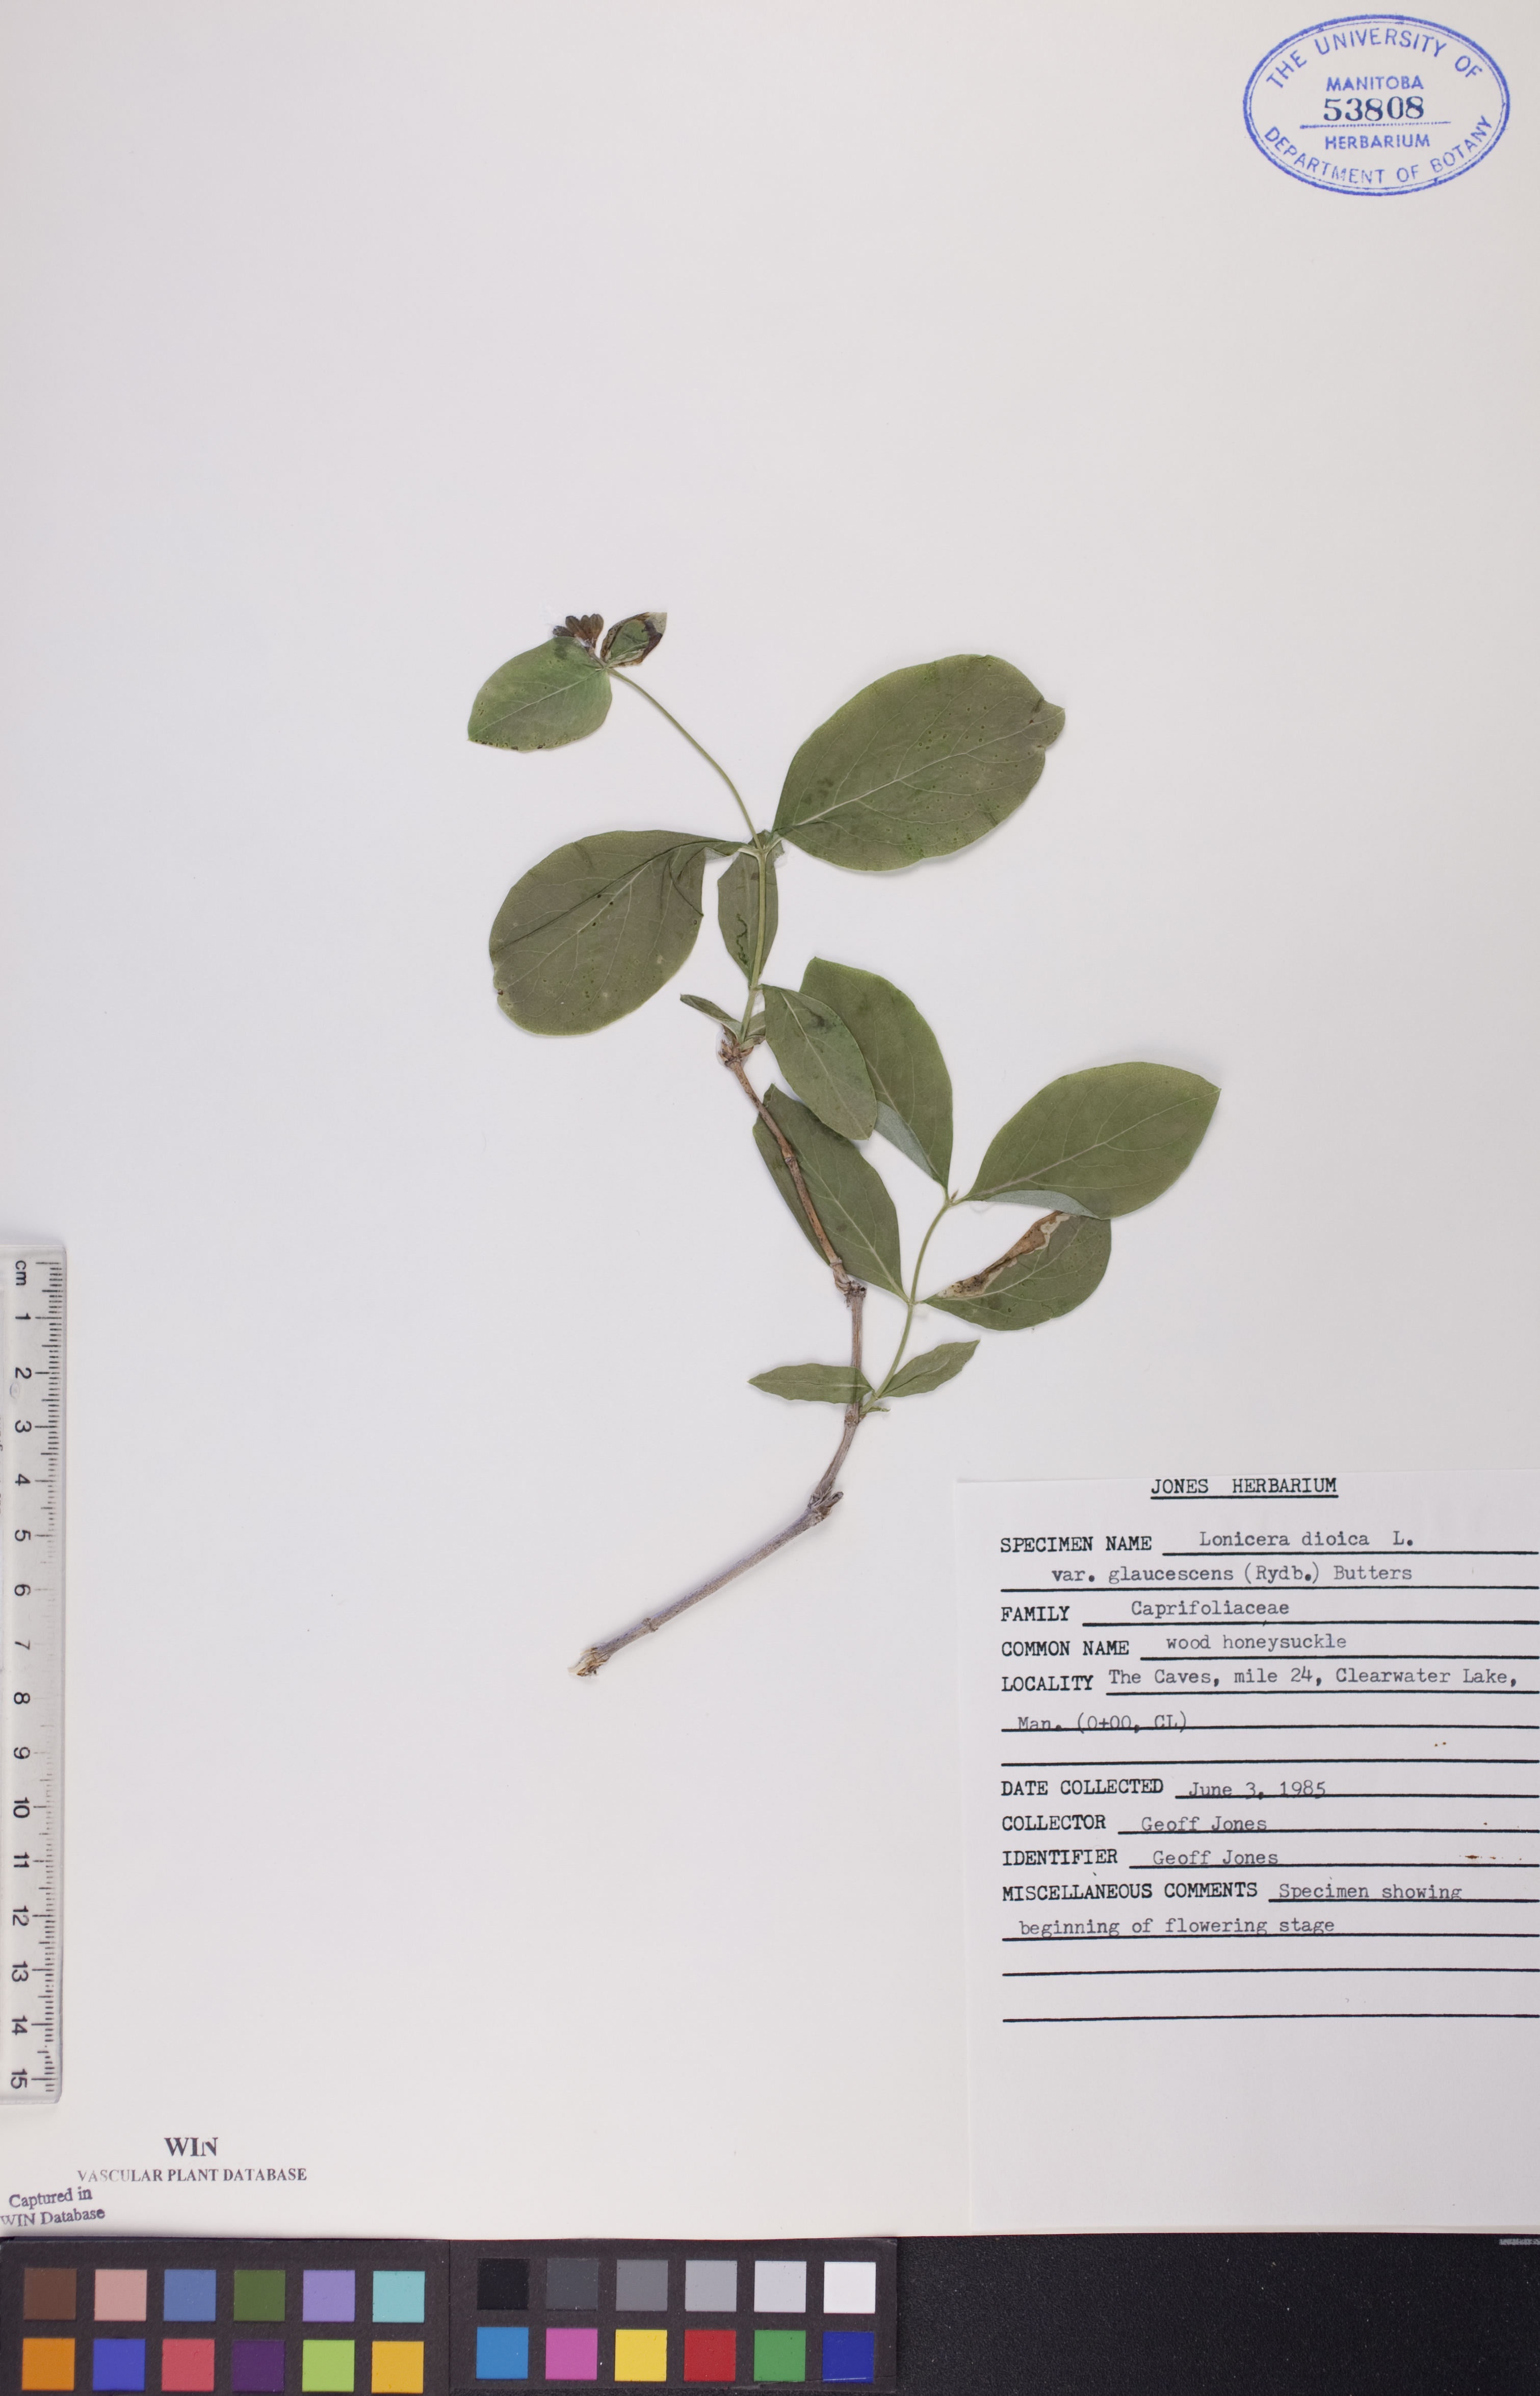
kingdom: Plantae
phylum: Tracheophyta
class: Magnoliopsida
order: Dipsacales
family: Caprifoliaceae
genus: Lonicera
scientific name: Lonicera dioica
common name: Limber honeysuckle
